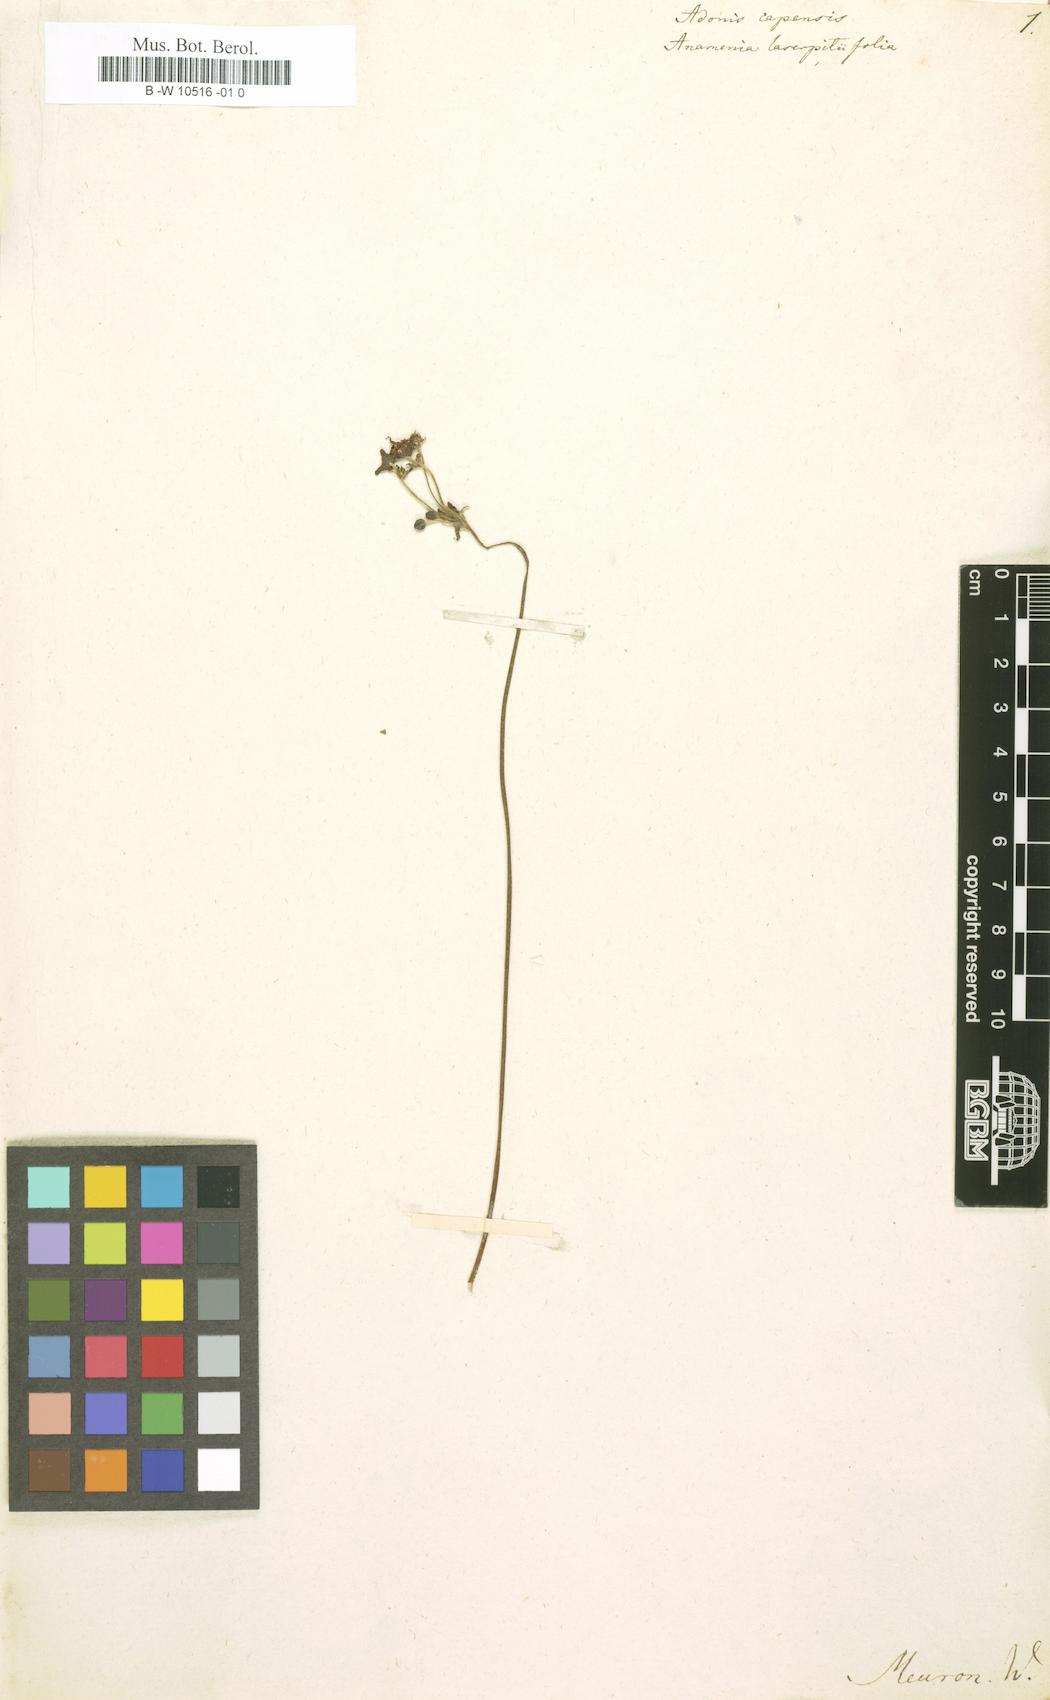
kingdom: Plantae
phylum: Tracheophyta
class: Magnoliopsida
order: Ranunculales
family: Ranunculaceae
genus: Knowltonia
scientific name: Knowltonia capensis
